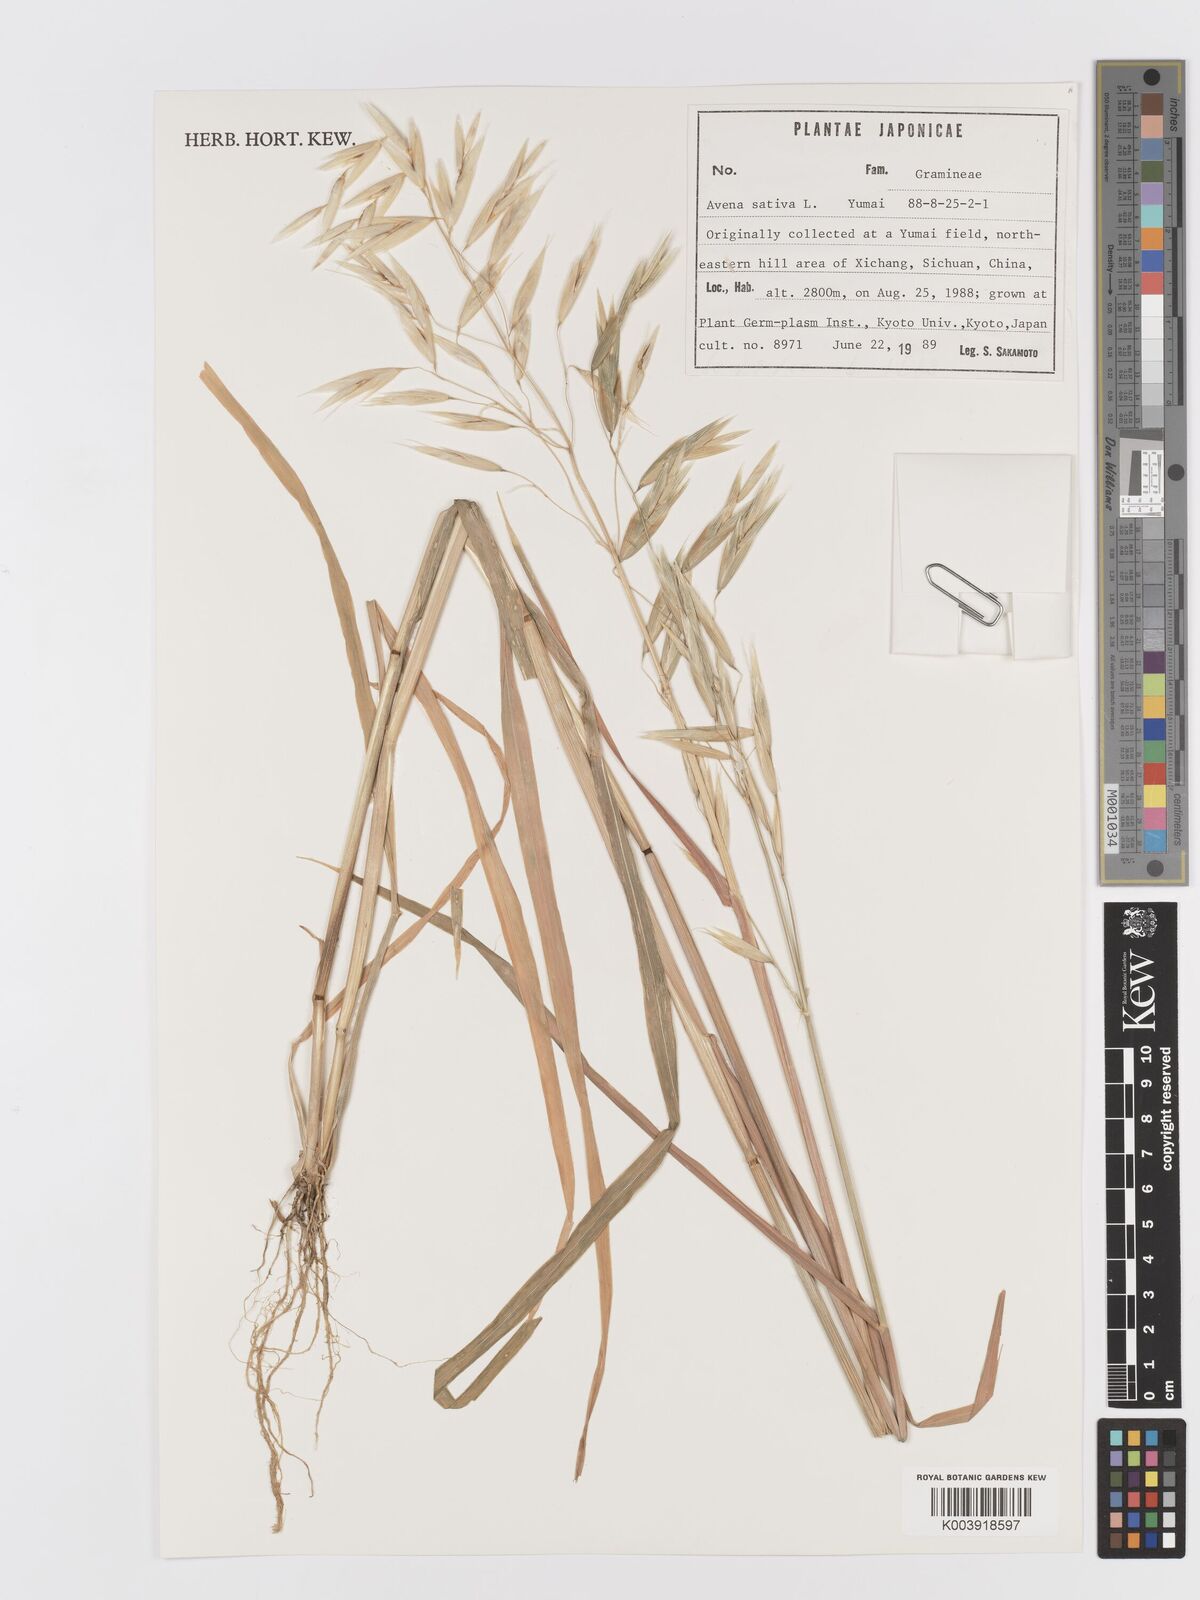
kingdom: Plantae
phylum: Tracheophyta
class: Liliopsida
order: Poales
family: Poaceae
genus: Avena
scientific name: Avena chinensis
